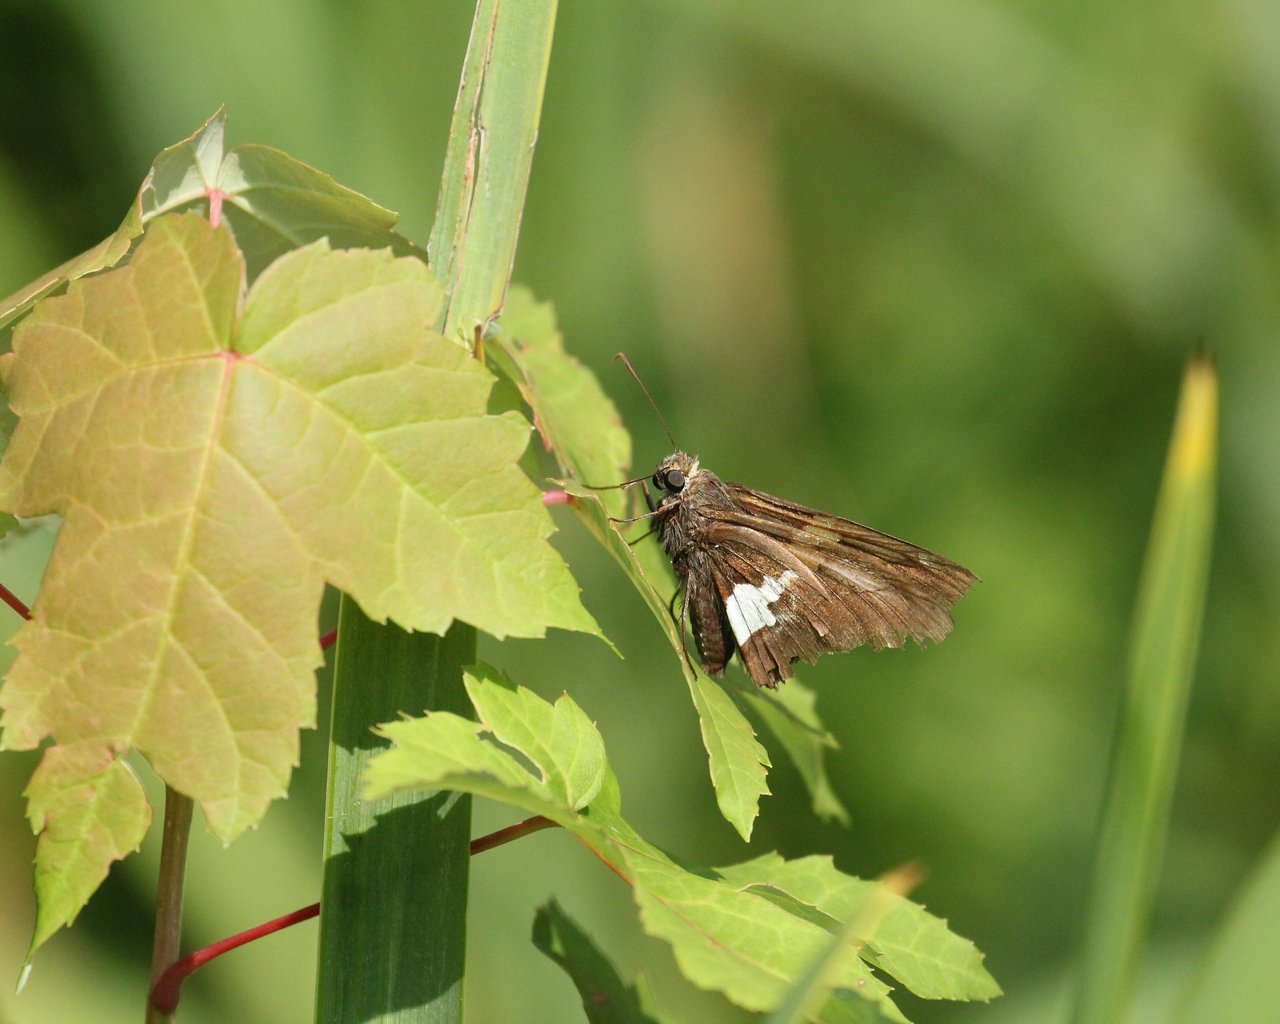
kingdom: Animalia
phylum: Arthropoda
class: Insecta
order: Lepidoptera
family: Hesperiidae
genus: Epargyreus
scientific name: Epargyreus clarus
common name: Silver-spotted Skipper
